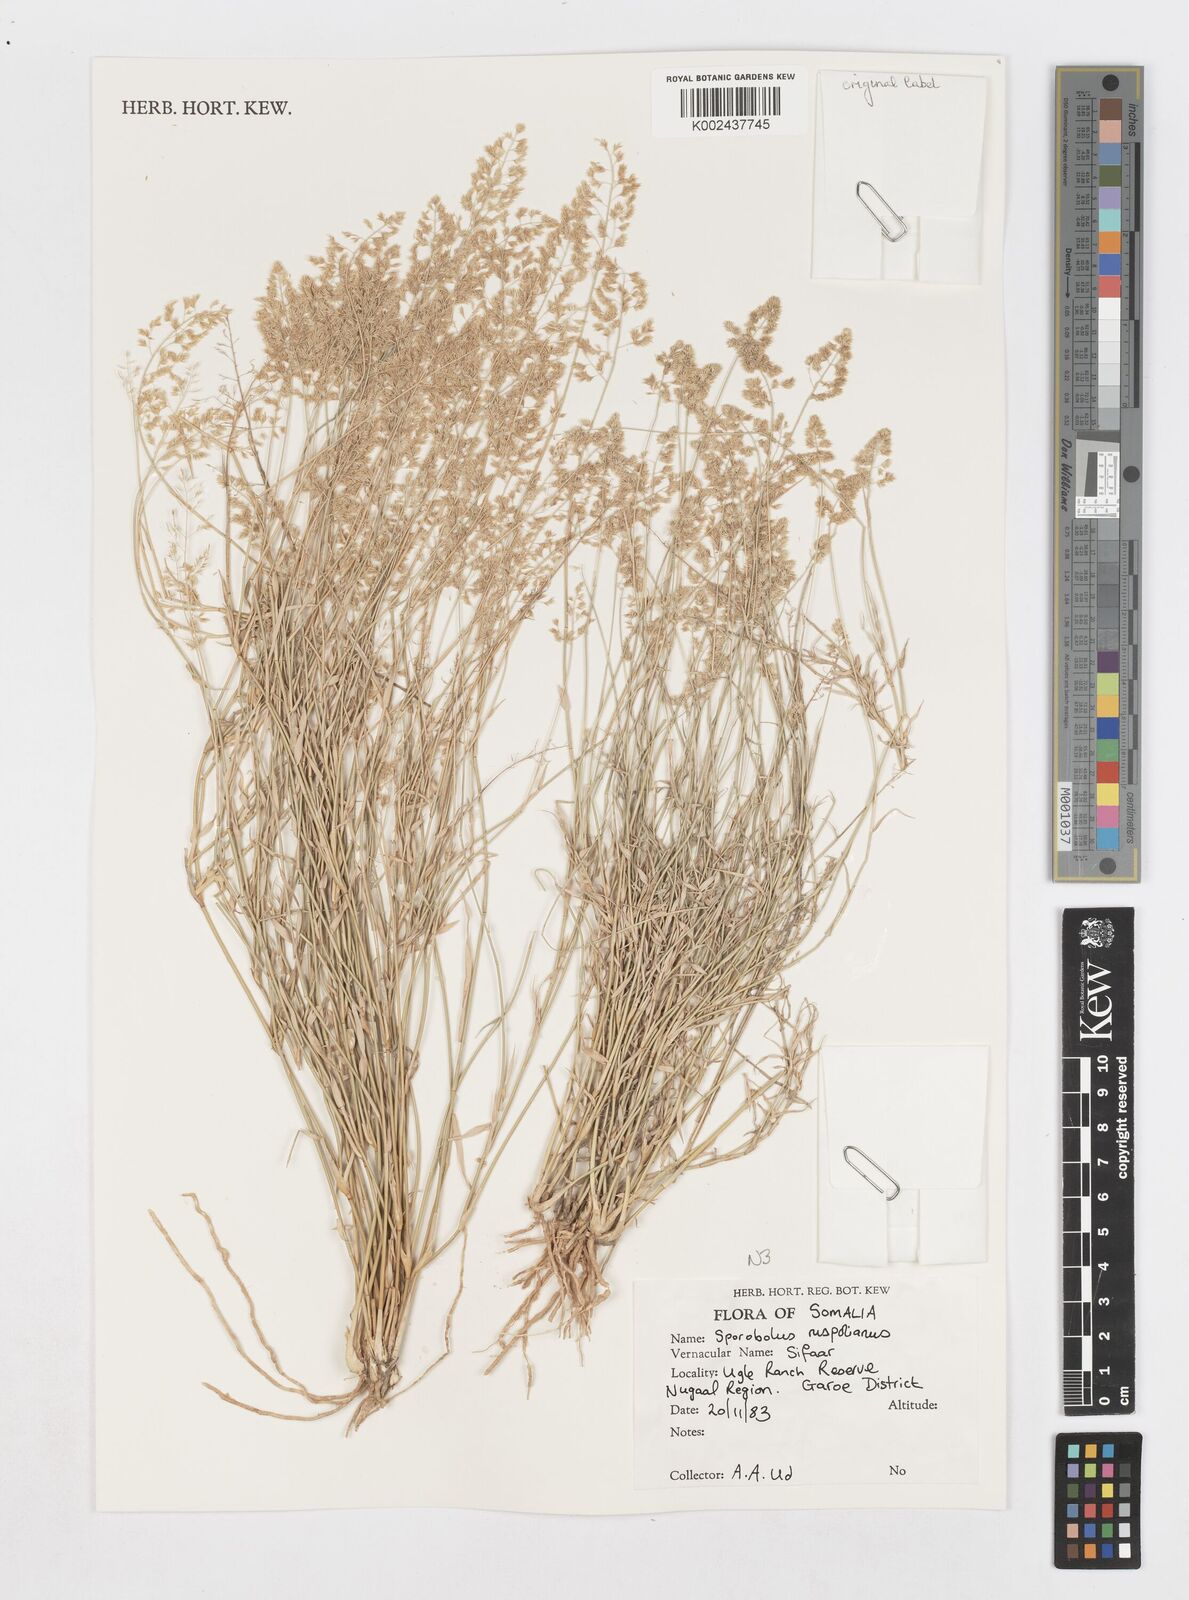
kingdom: Plantae
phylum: Tracheophyta
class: Liliopsida
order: Poales
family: Poaceae
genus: Sporobolus
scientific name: Sporobolus ruspolianus
